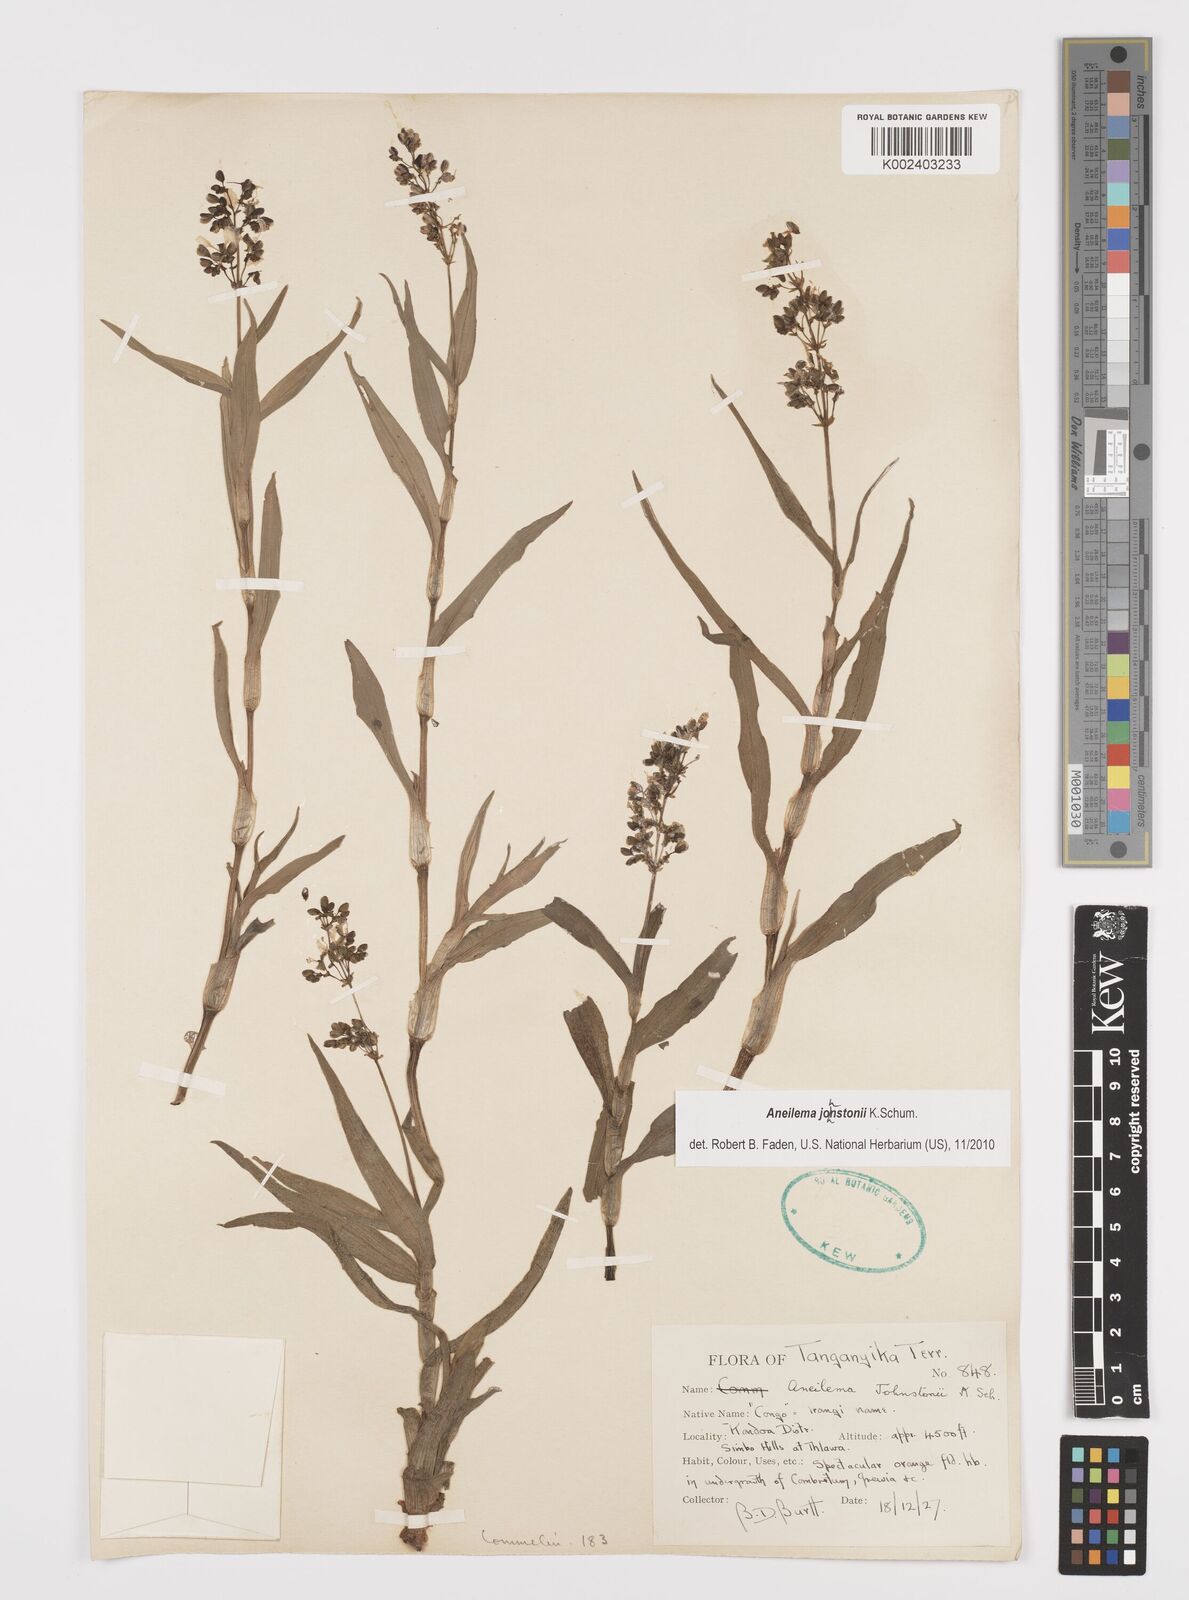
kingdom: Plantae
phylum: Tracheophyta
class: Liliopsida
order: Commelinales
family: Commelinaceae
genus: Aneilema
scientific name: Aneilema johnstonii
